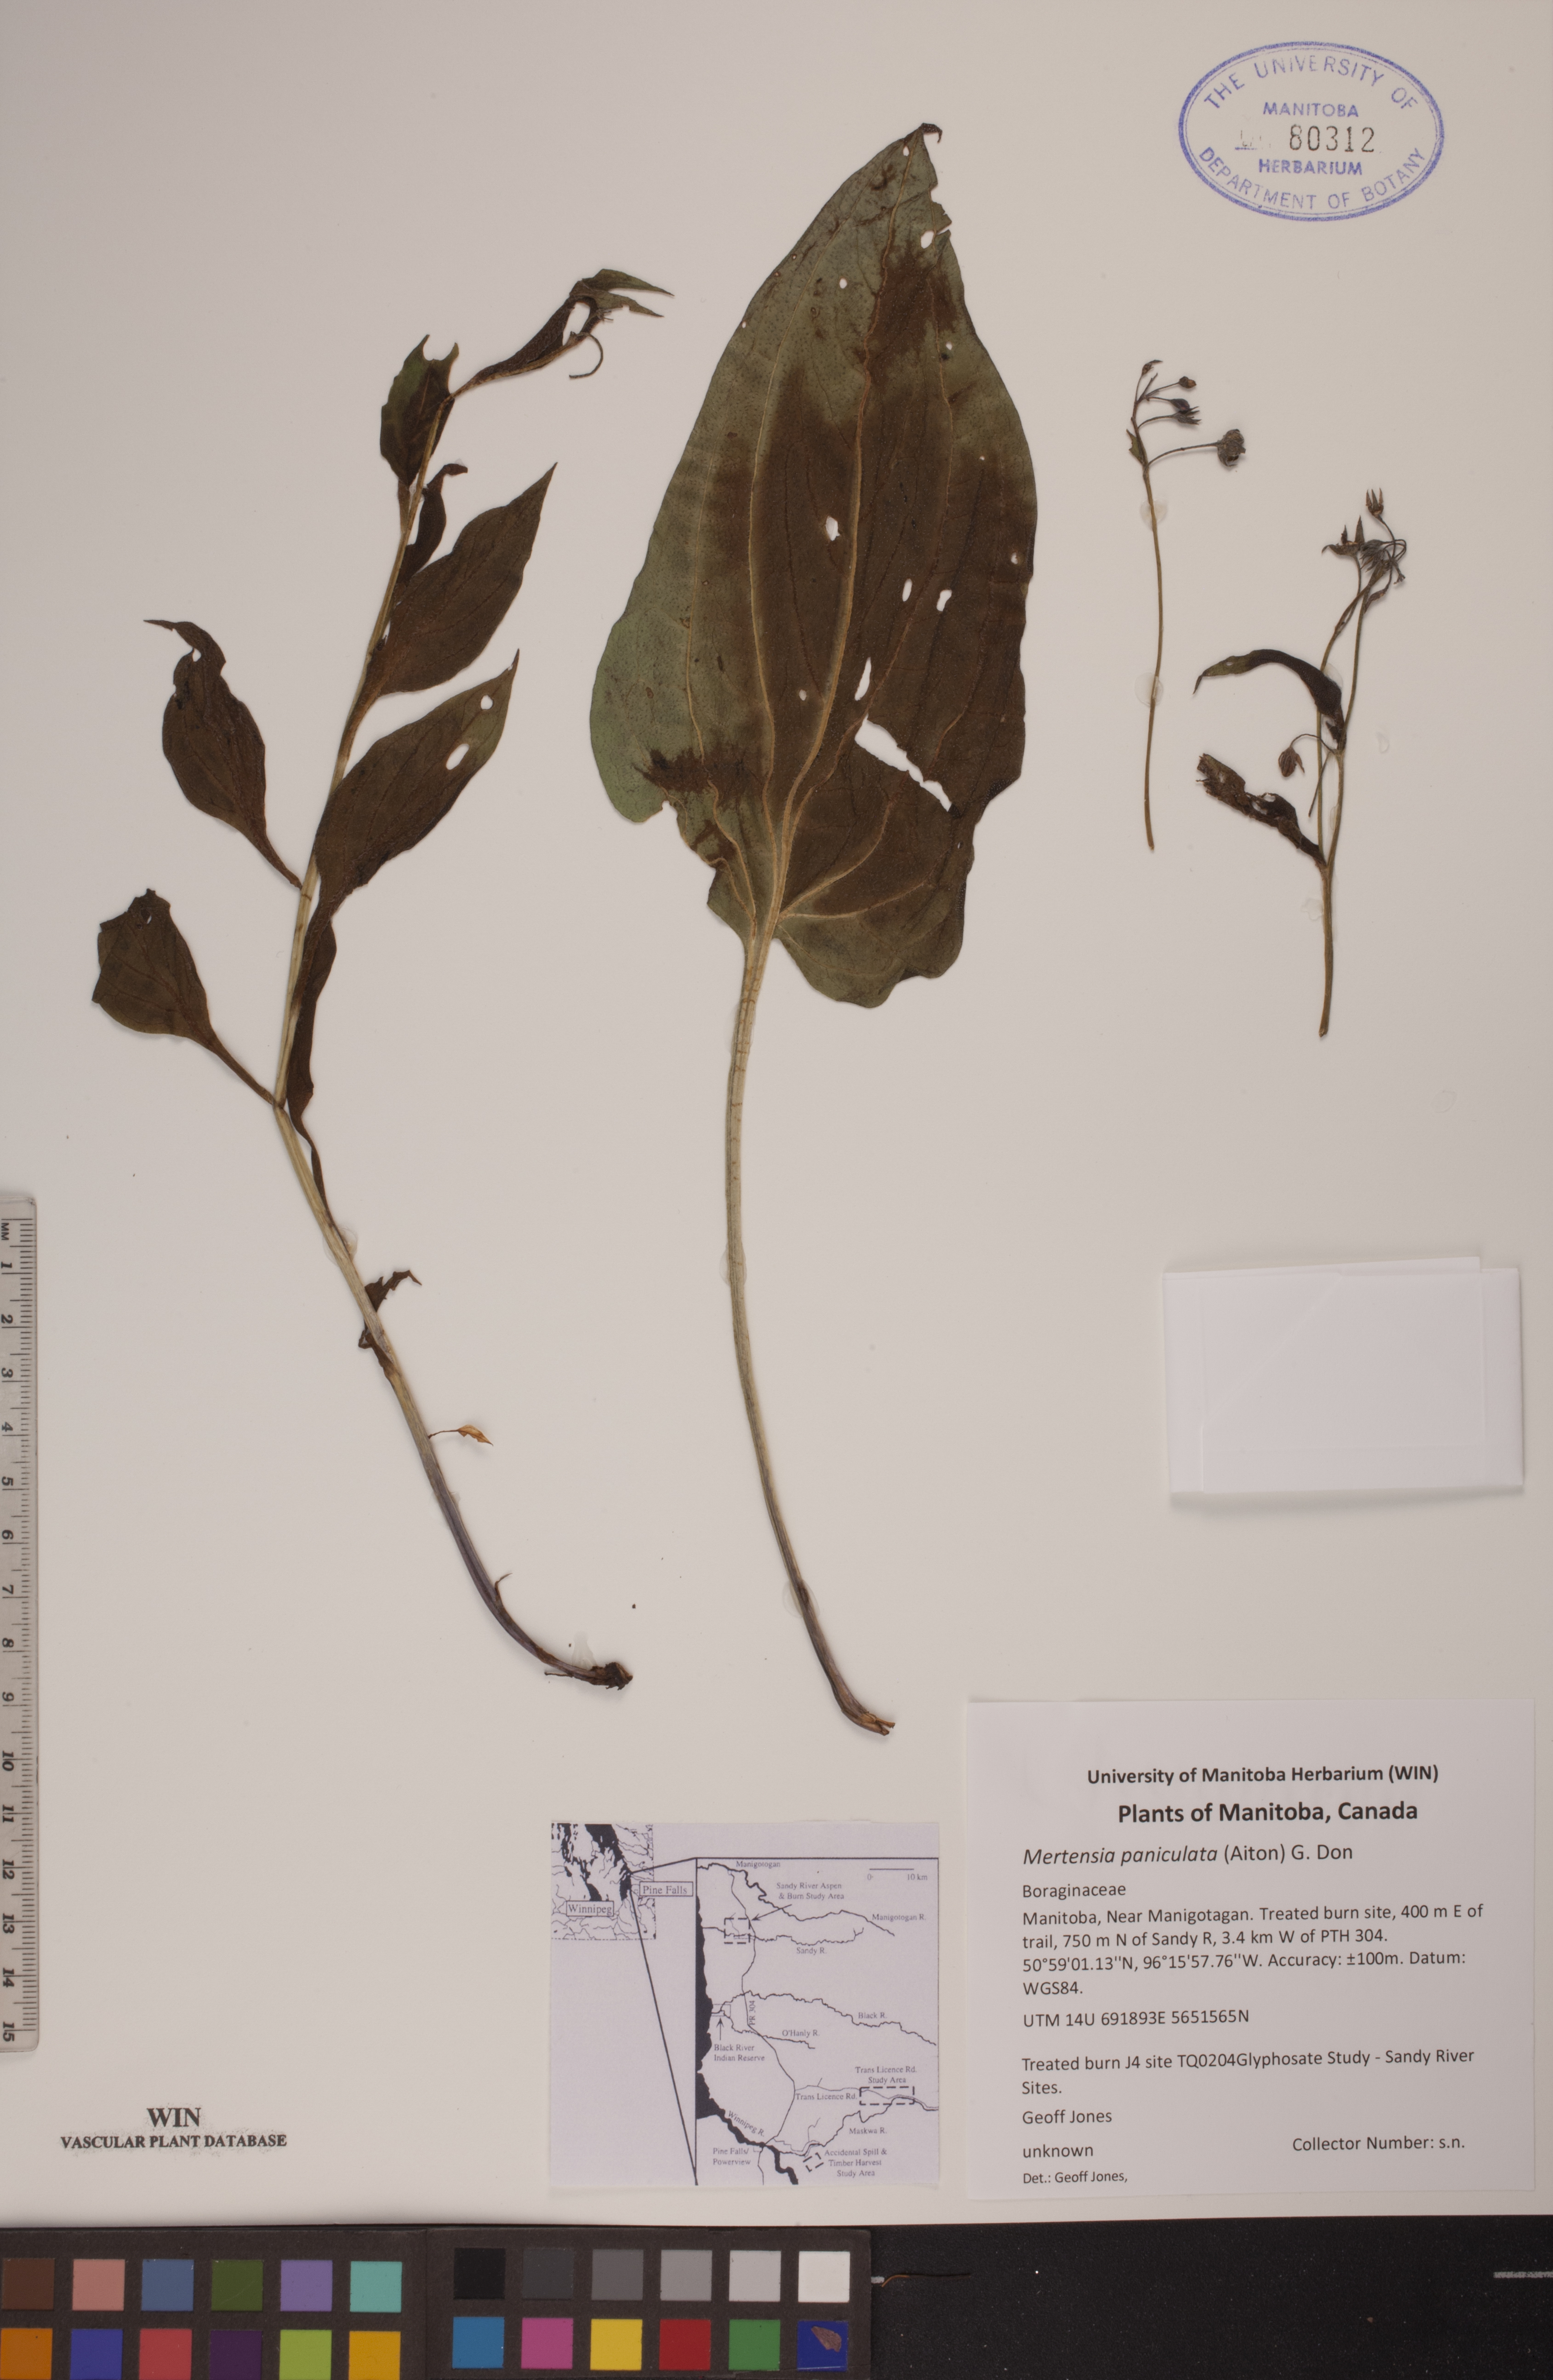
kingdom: Plantae
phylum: Tracheophyta
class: Magnoliopsida
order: Boraginales
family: Boraginaceae
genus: Mertensia
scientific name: Mertensia paniculata
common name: Panicled bluebells
